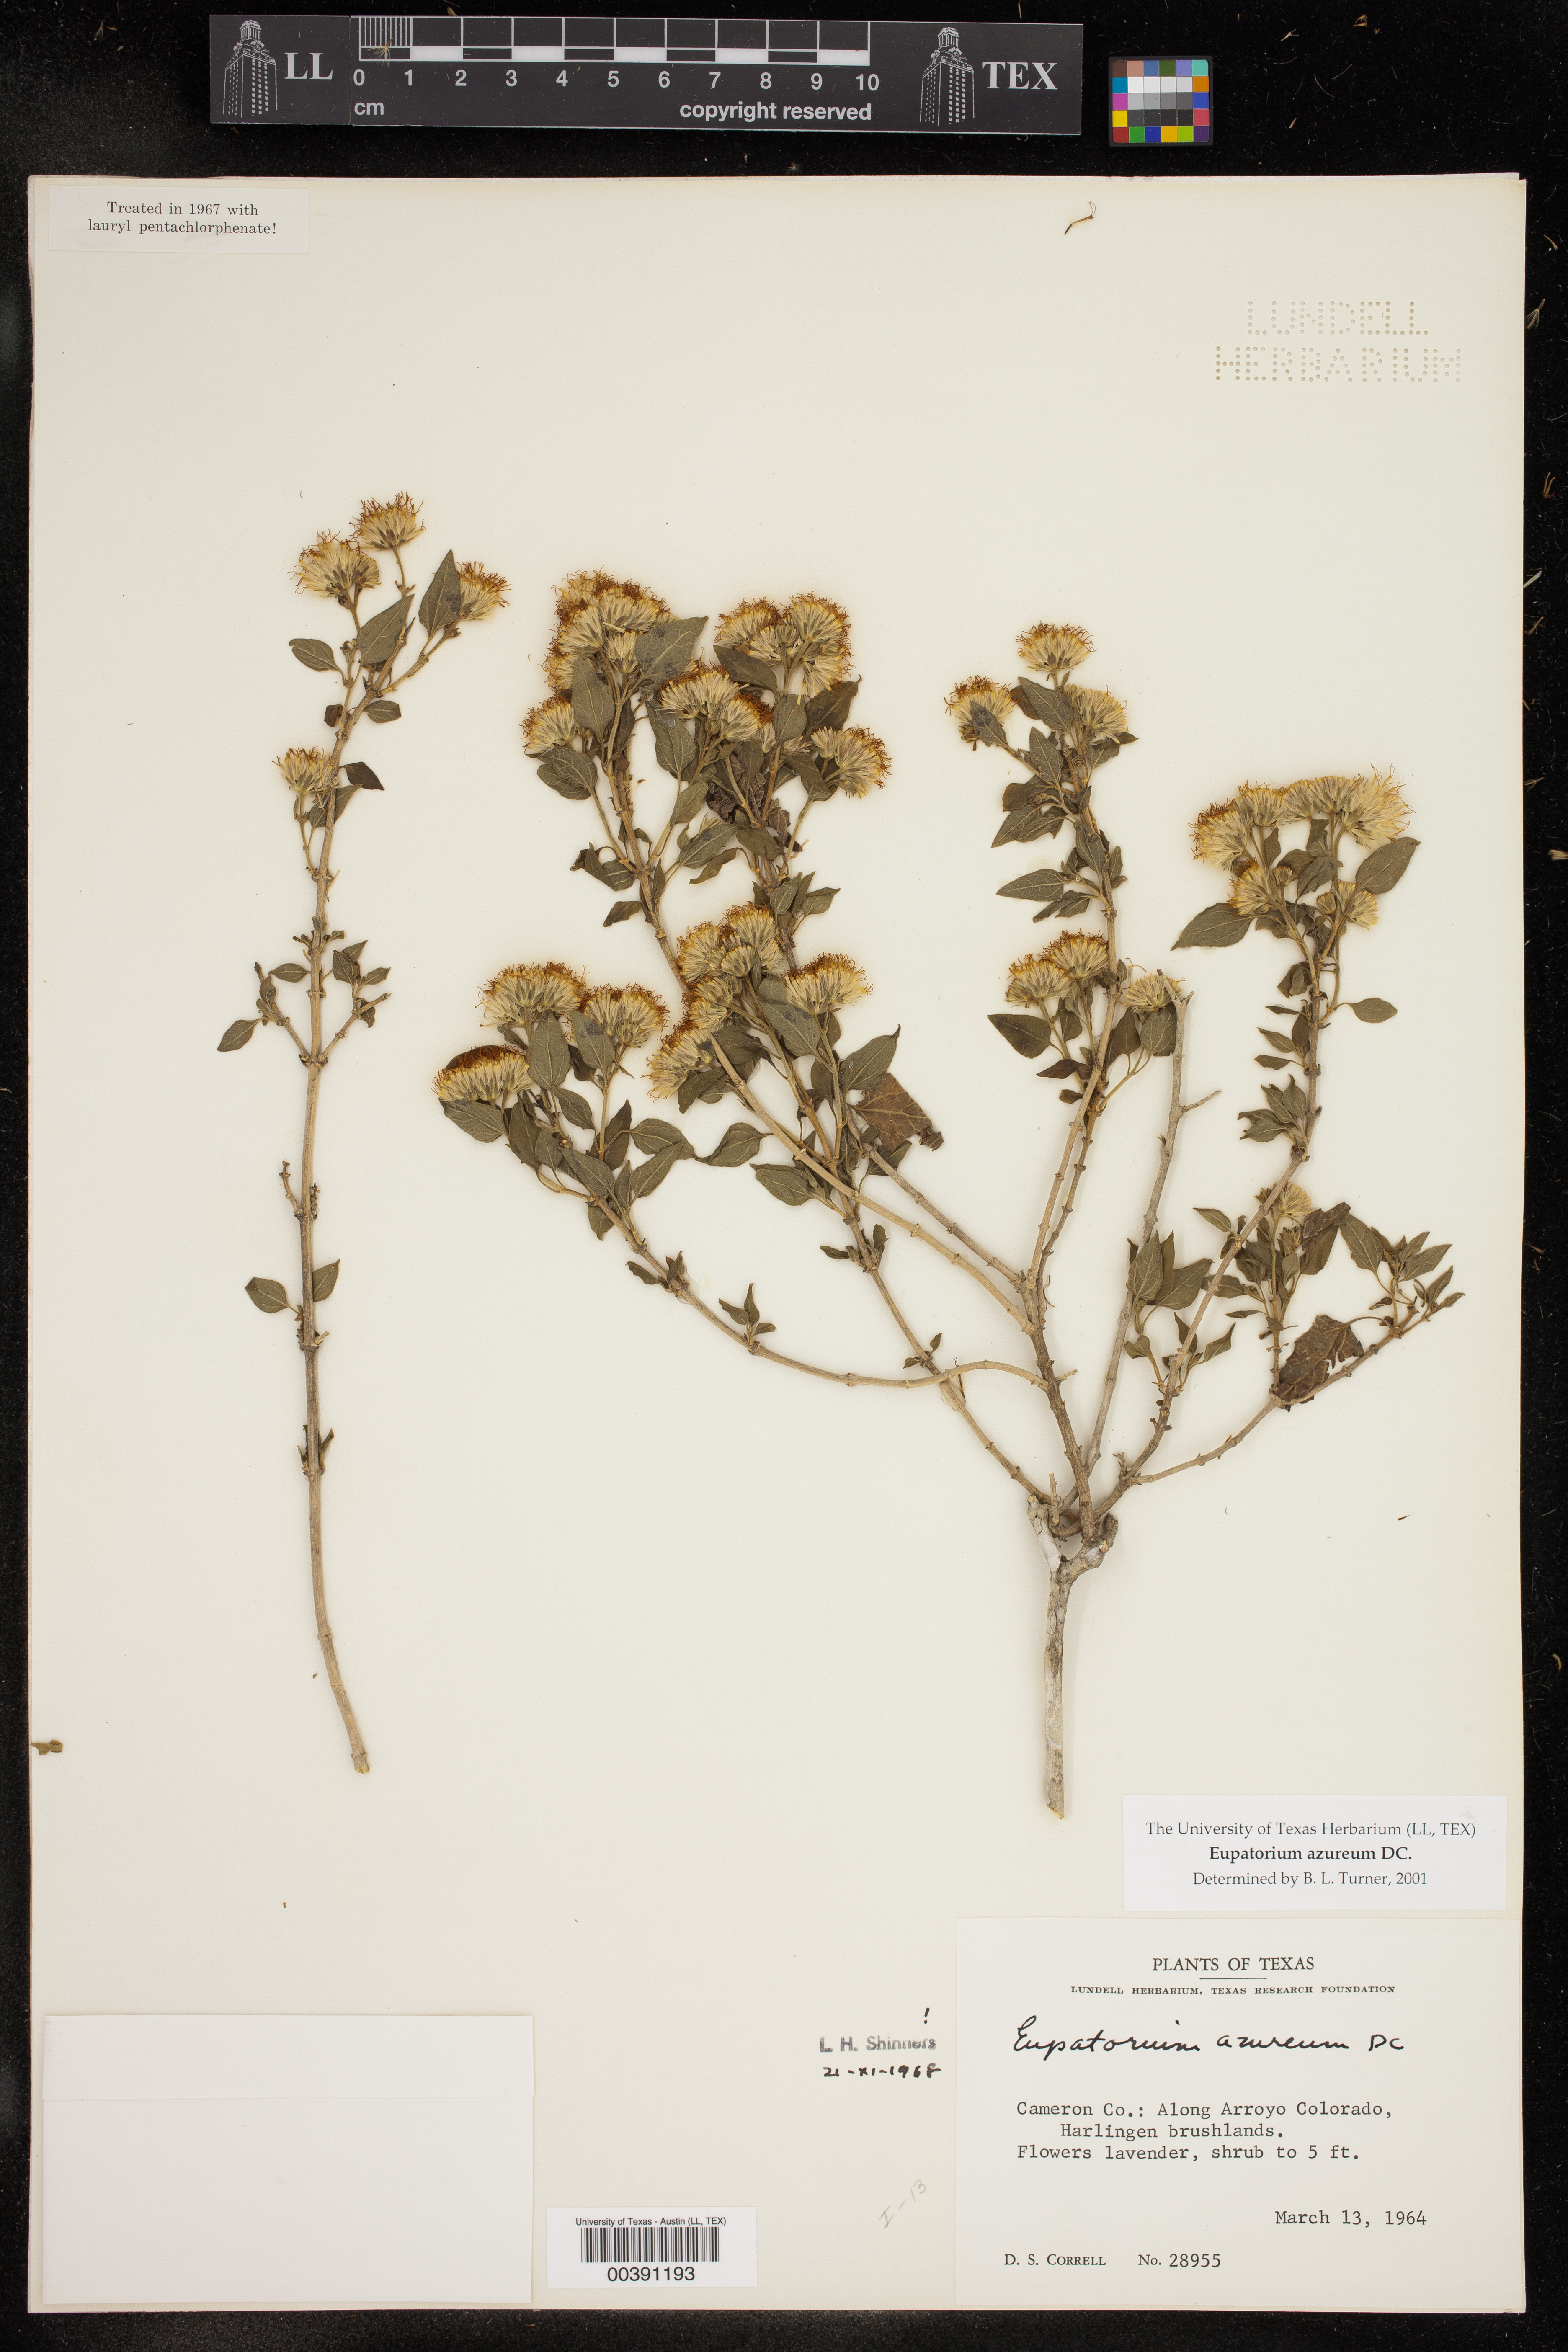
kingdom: Plantae
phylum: Tracheophyta
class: Magnoliopsida
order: Asterales
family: Asteraceae
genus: Tamaulipa
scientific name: Tamaulipa azurea
